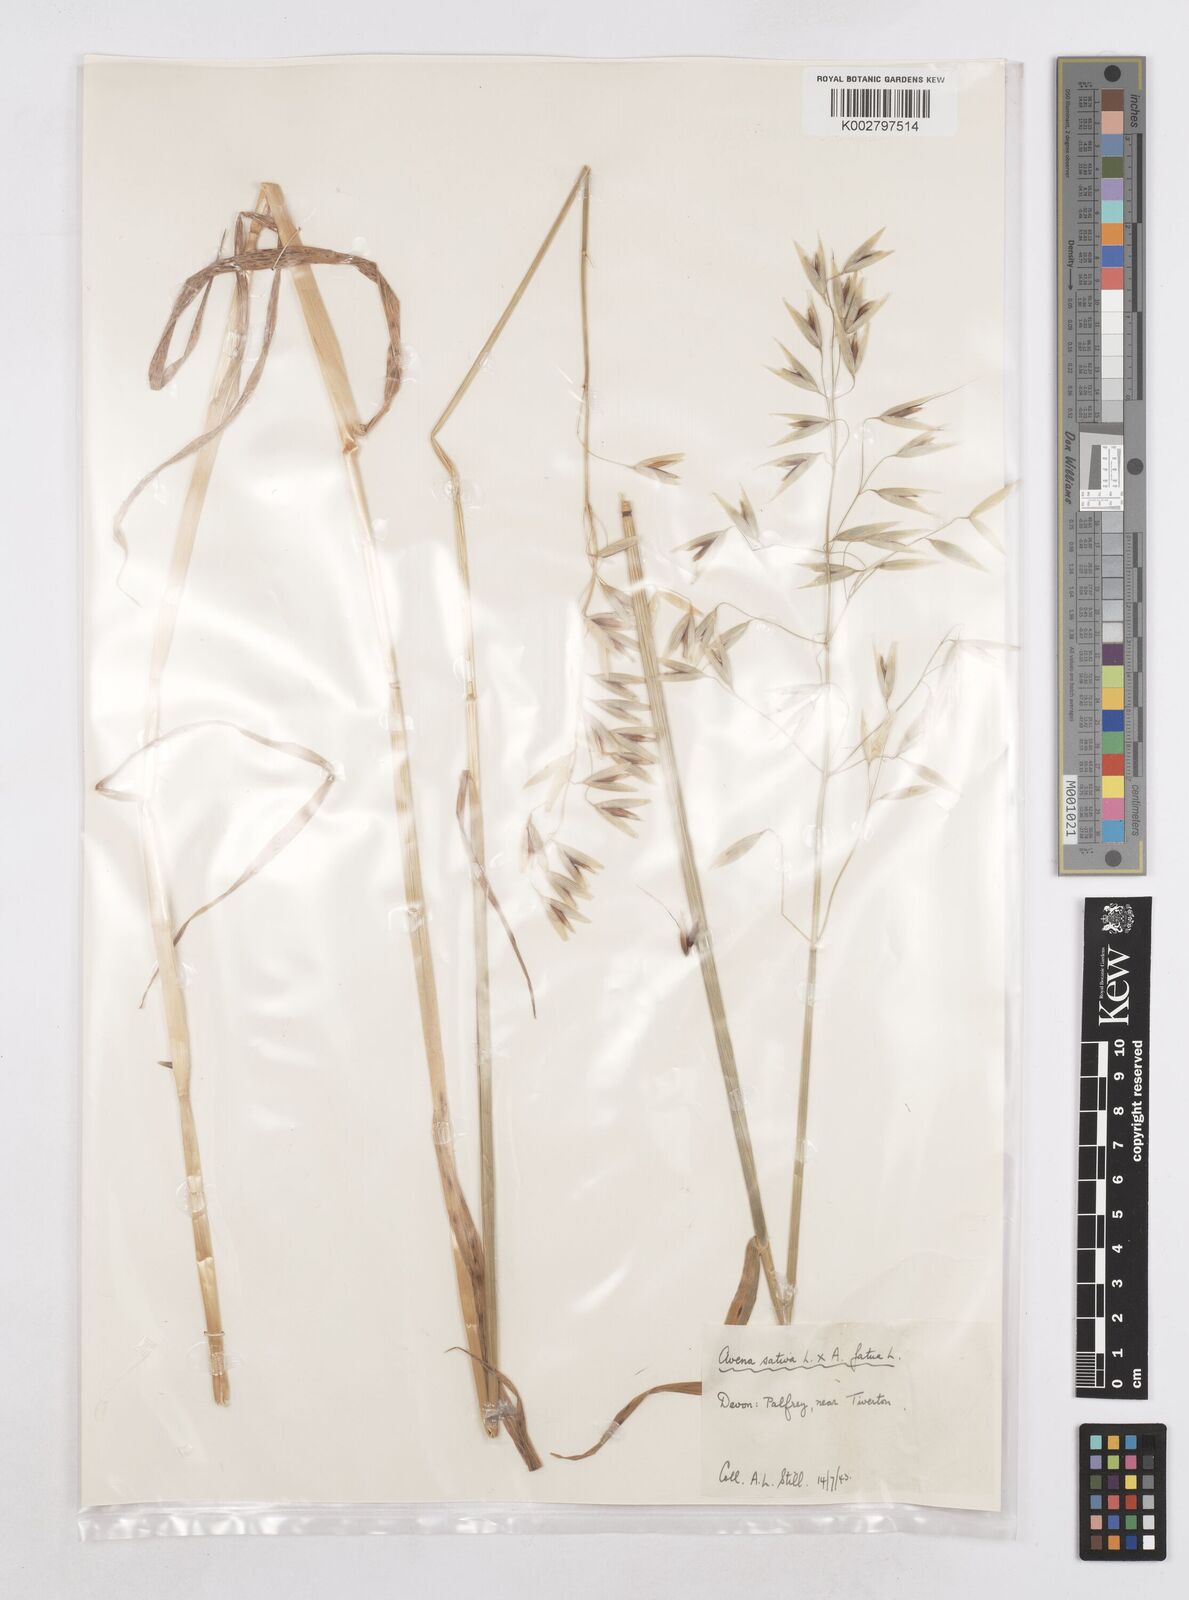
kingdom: Plantae
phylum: Tracheophyta
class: Liliopsida
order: Poales
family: Poaceae
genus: Avena
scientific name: Avena fatua
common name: Wild oat
